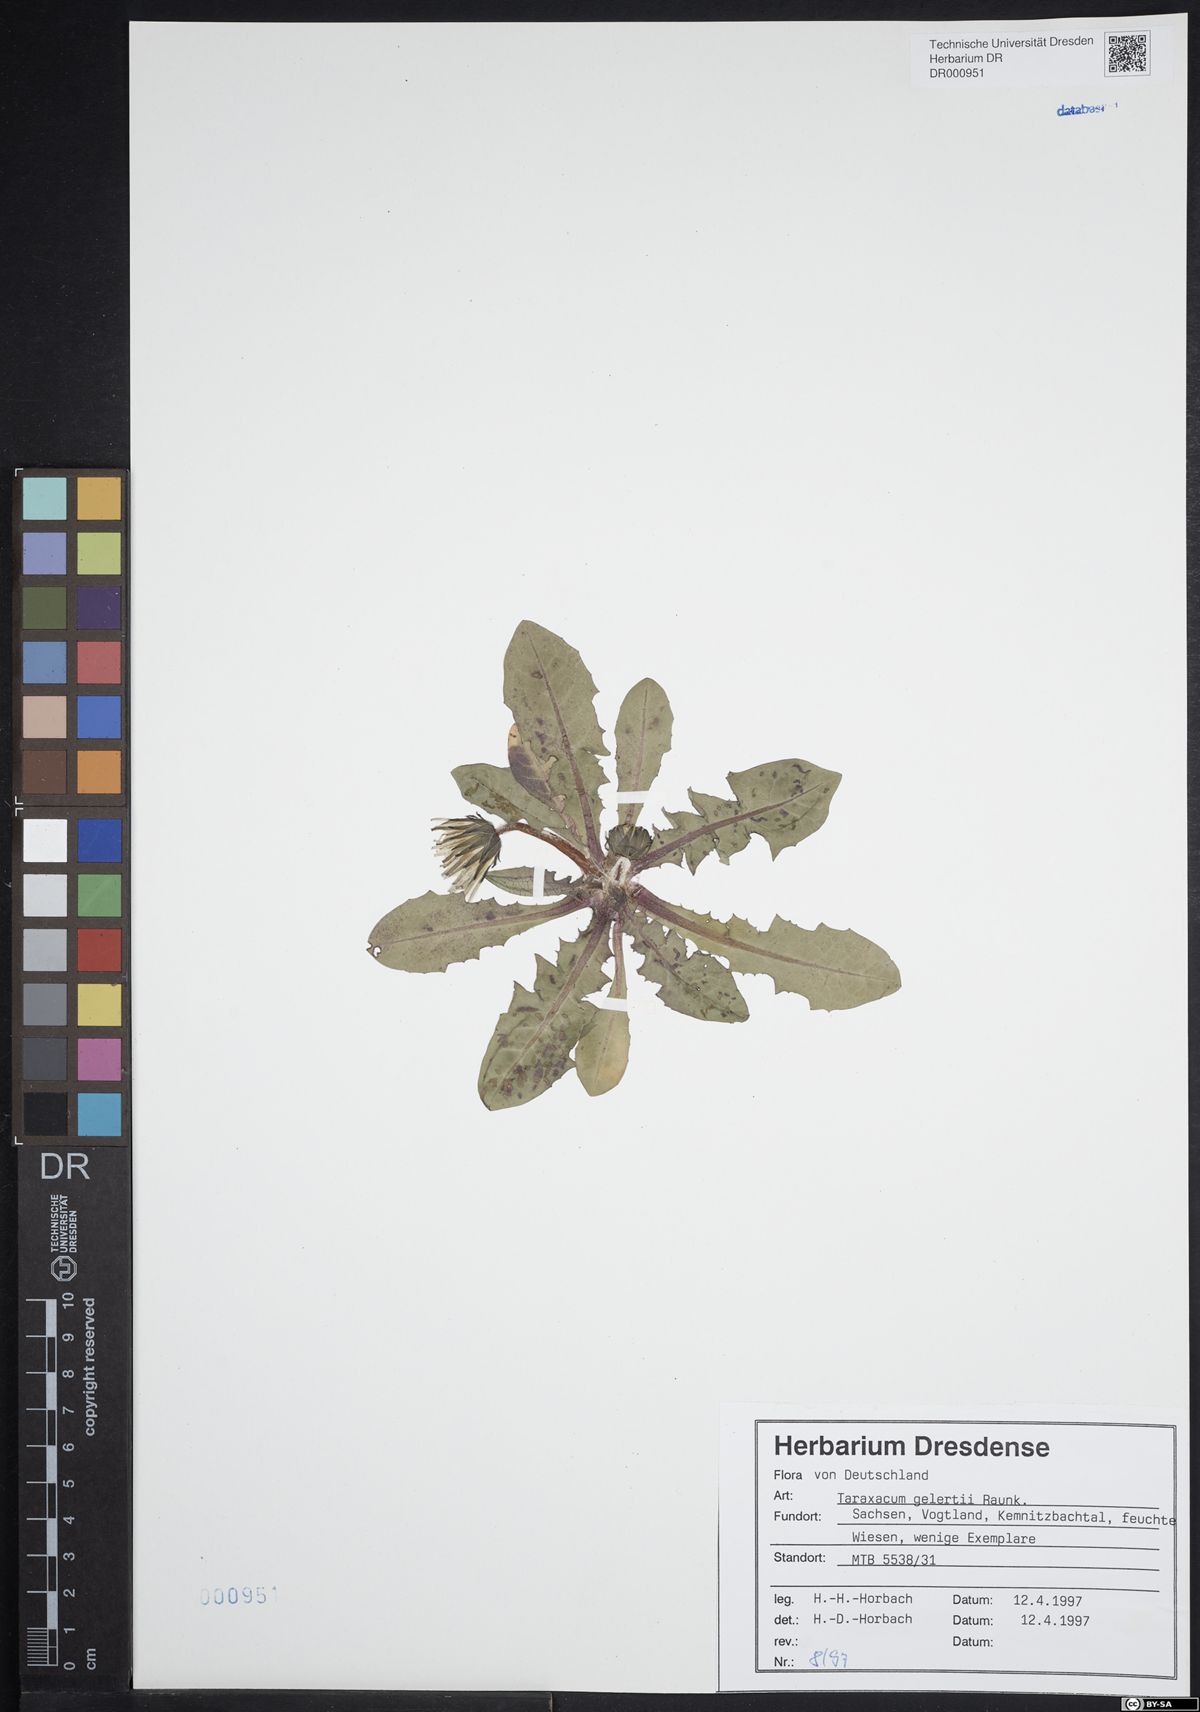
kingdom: Plantae
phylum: Tracheophyta
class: Magnoliopsida
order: Asterales
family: Asteraceae
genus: Taraxacum
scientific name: Taraxacum gelertii
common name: Gelert's dandelion
